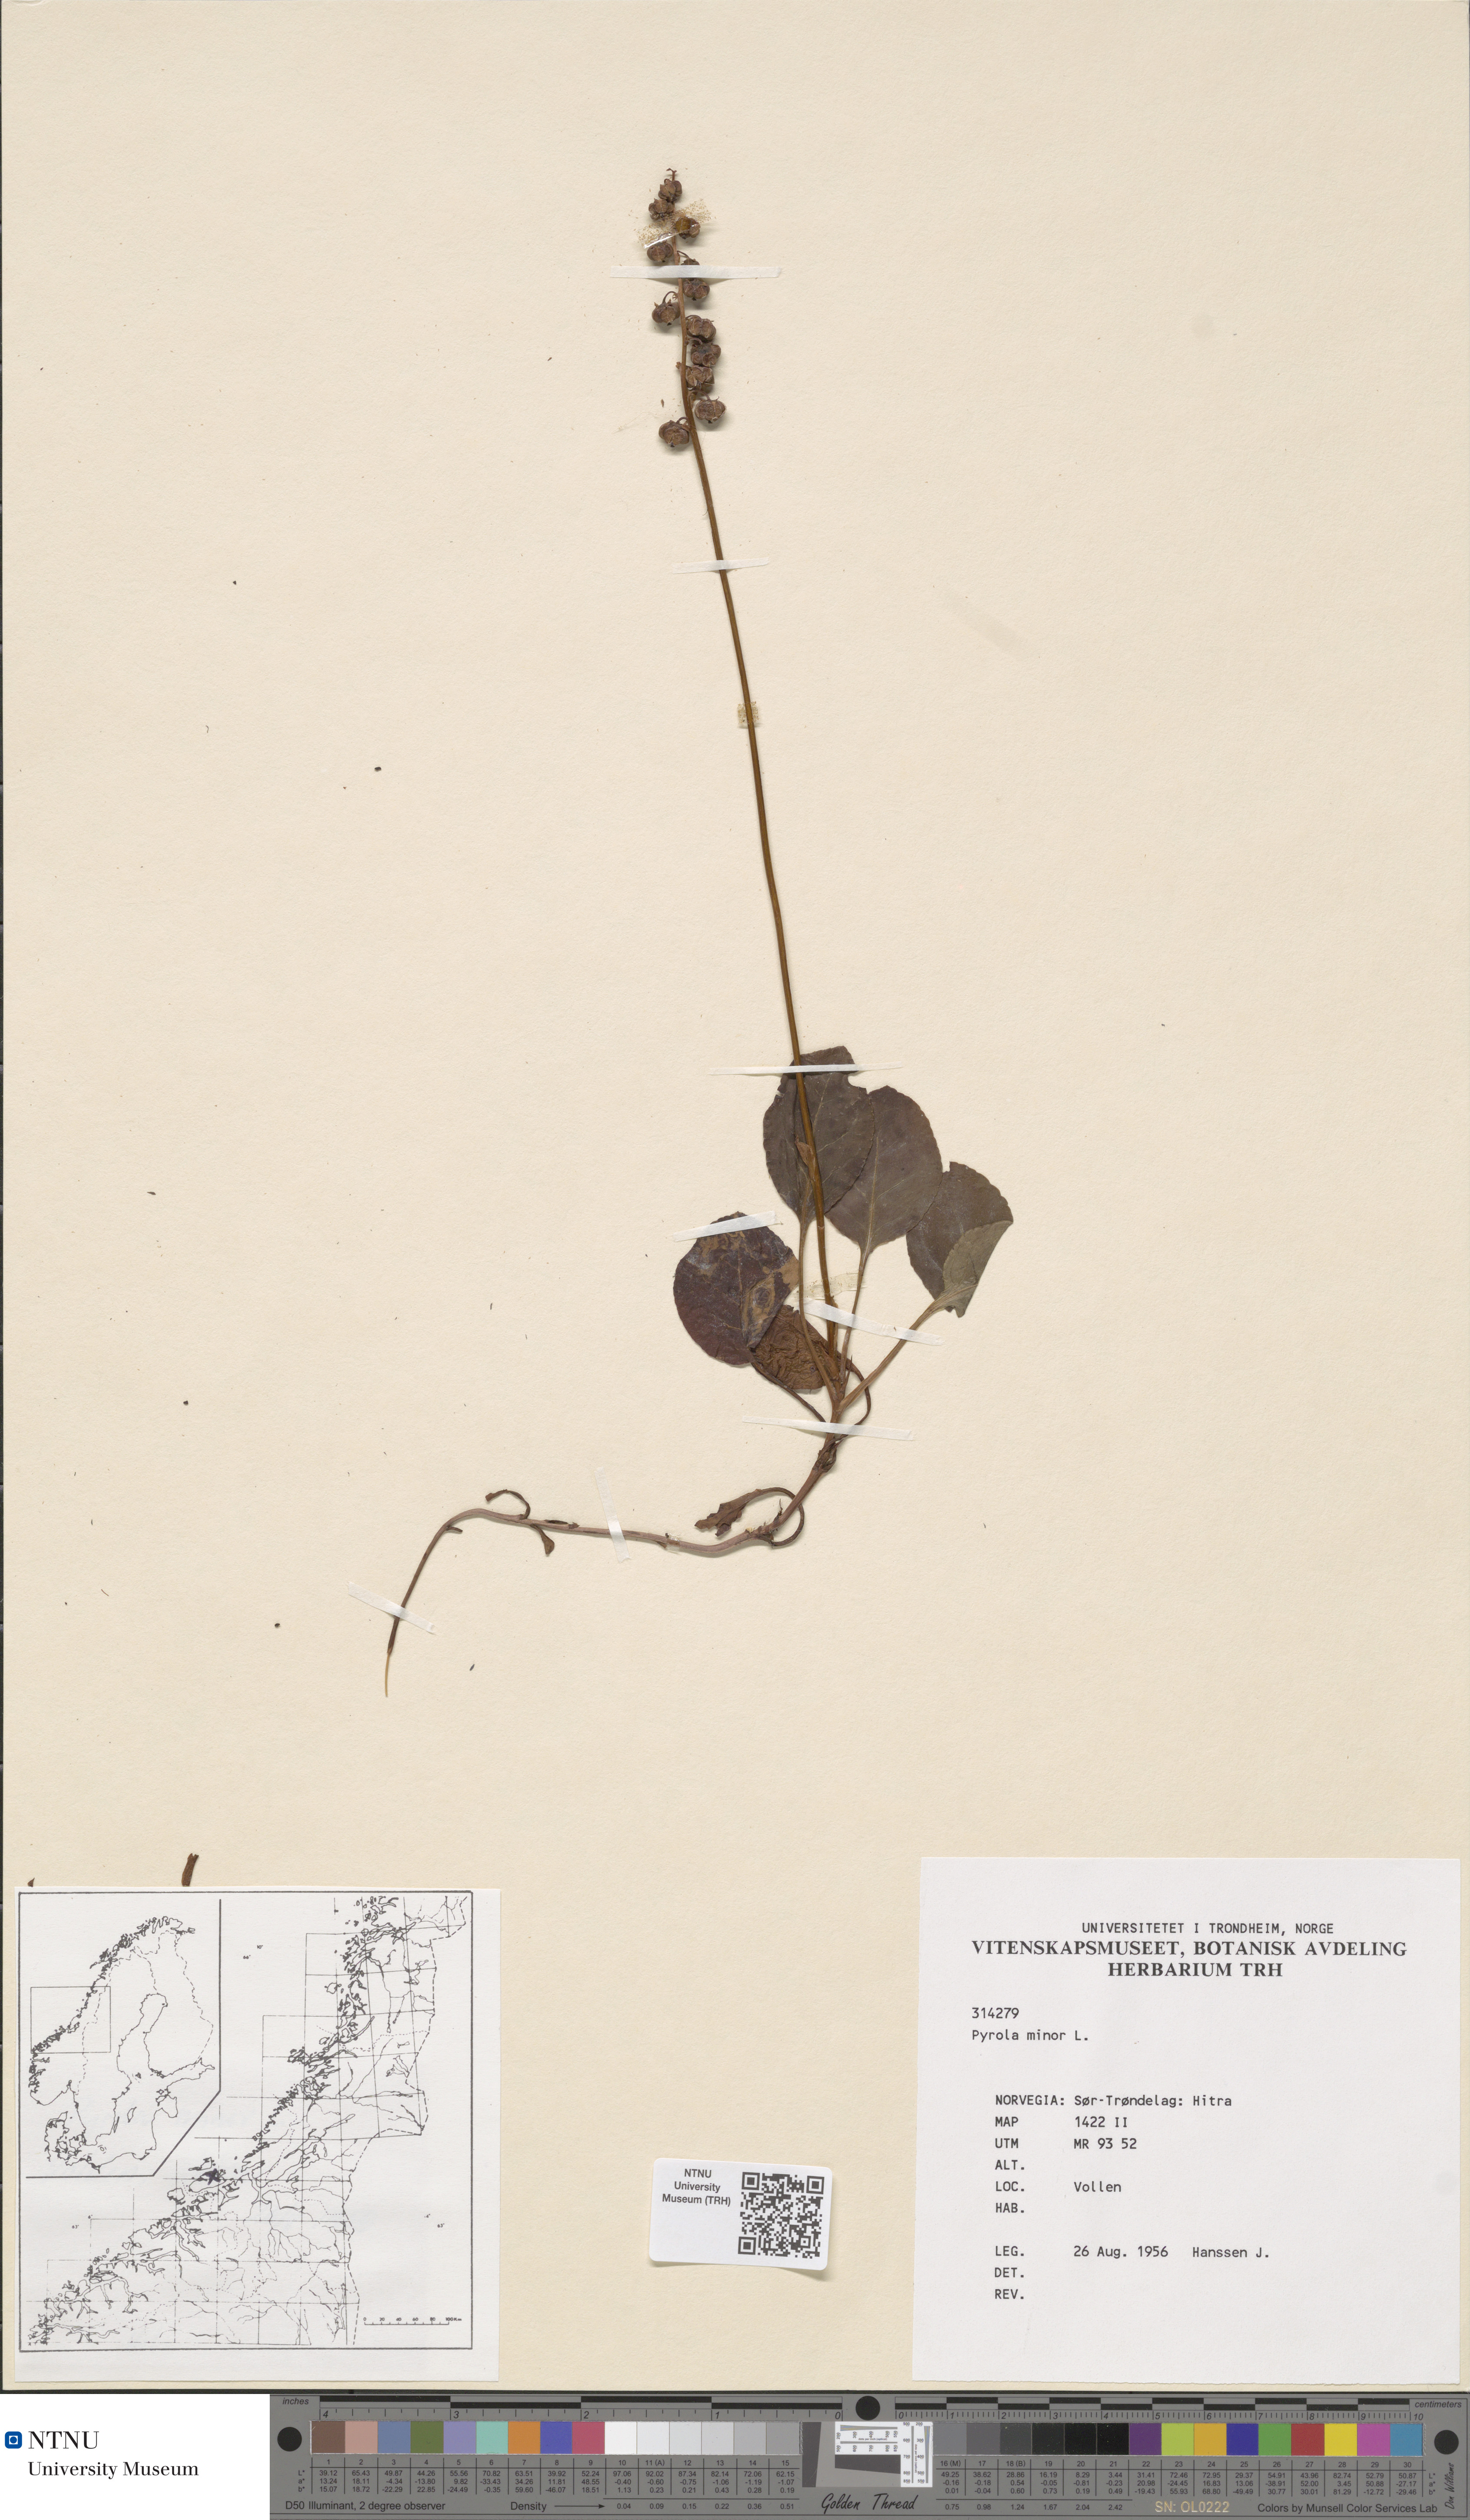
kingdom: Plantae
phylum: Tracheophyta
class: Magnoliopsida
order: Ericales
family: Ericaceae
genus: Pyrola
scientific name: Pyrola minor
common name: Common wintergreen
